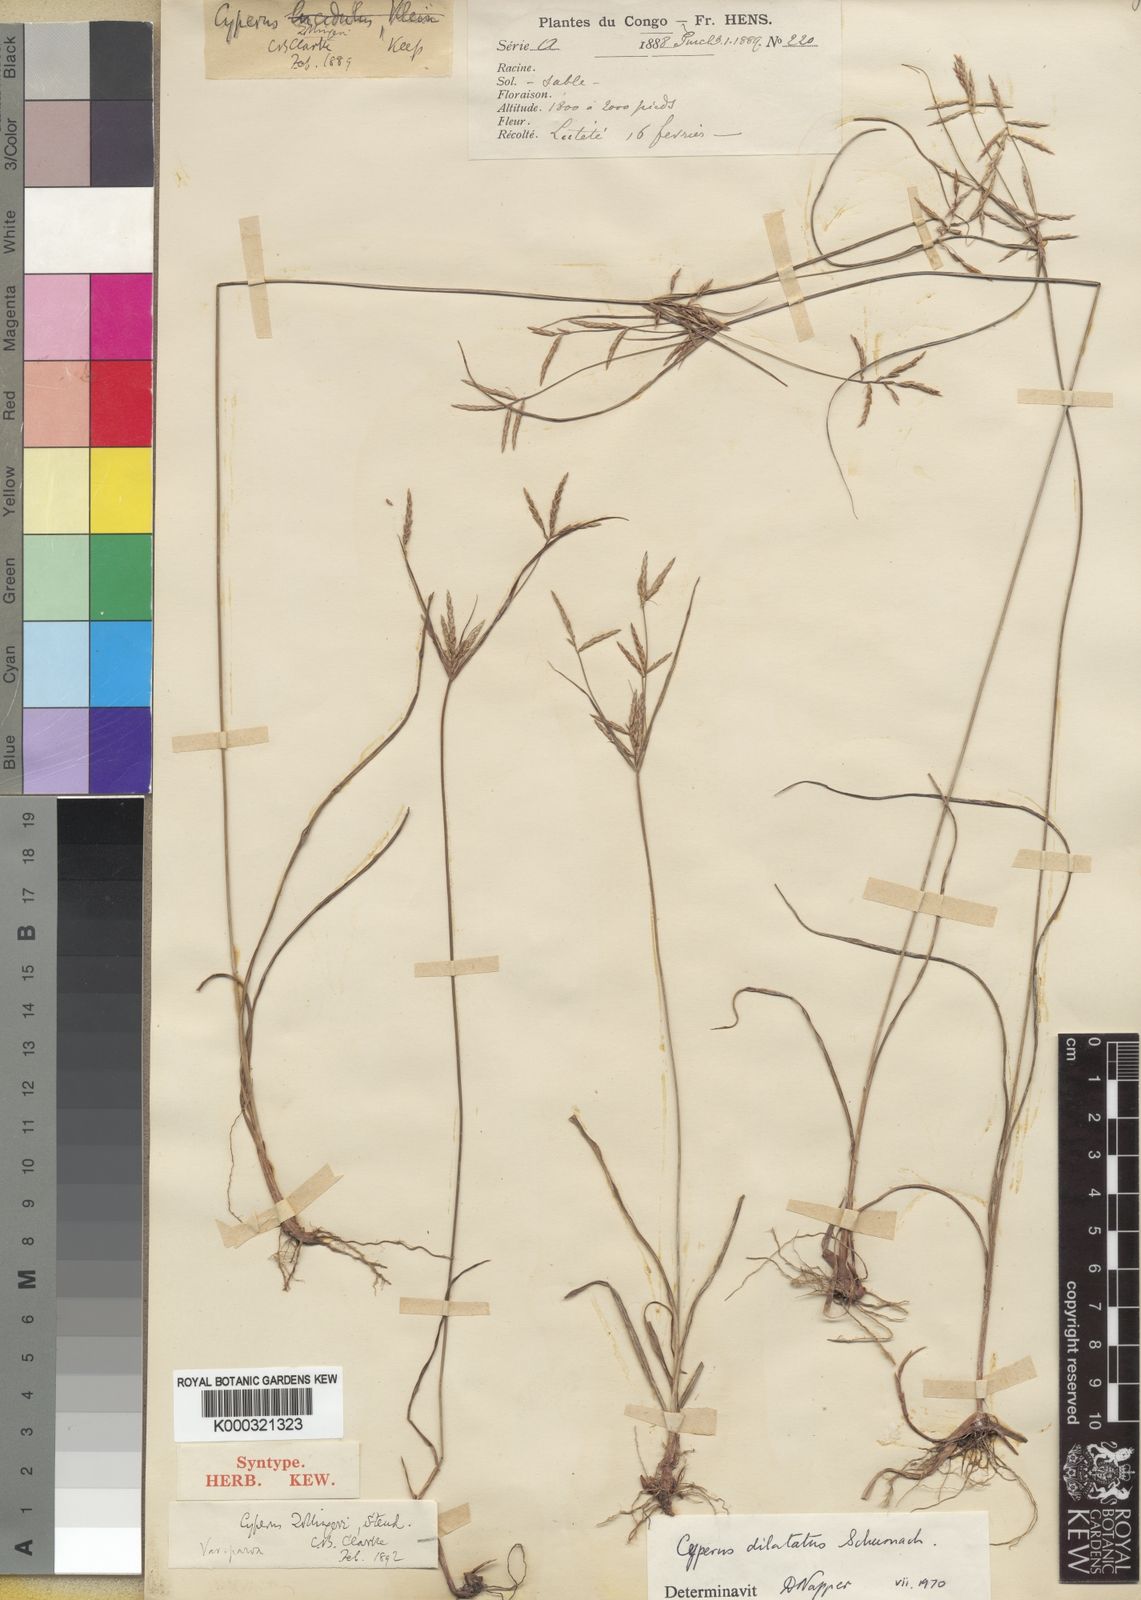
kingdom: Plantae
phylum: Tracheophyta
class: Liliopsida
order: Poales
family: Cyperaceae
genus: Cyperus
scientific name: Cyperus zollingeri
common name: Roadside flatsedge
